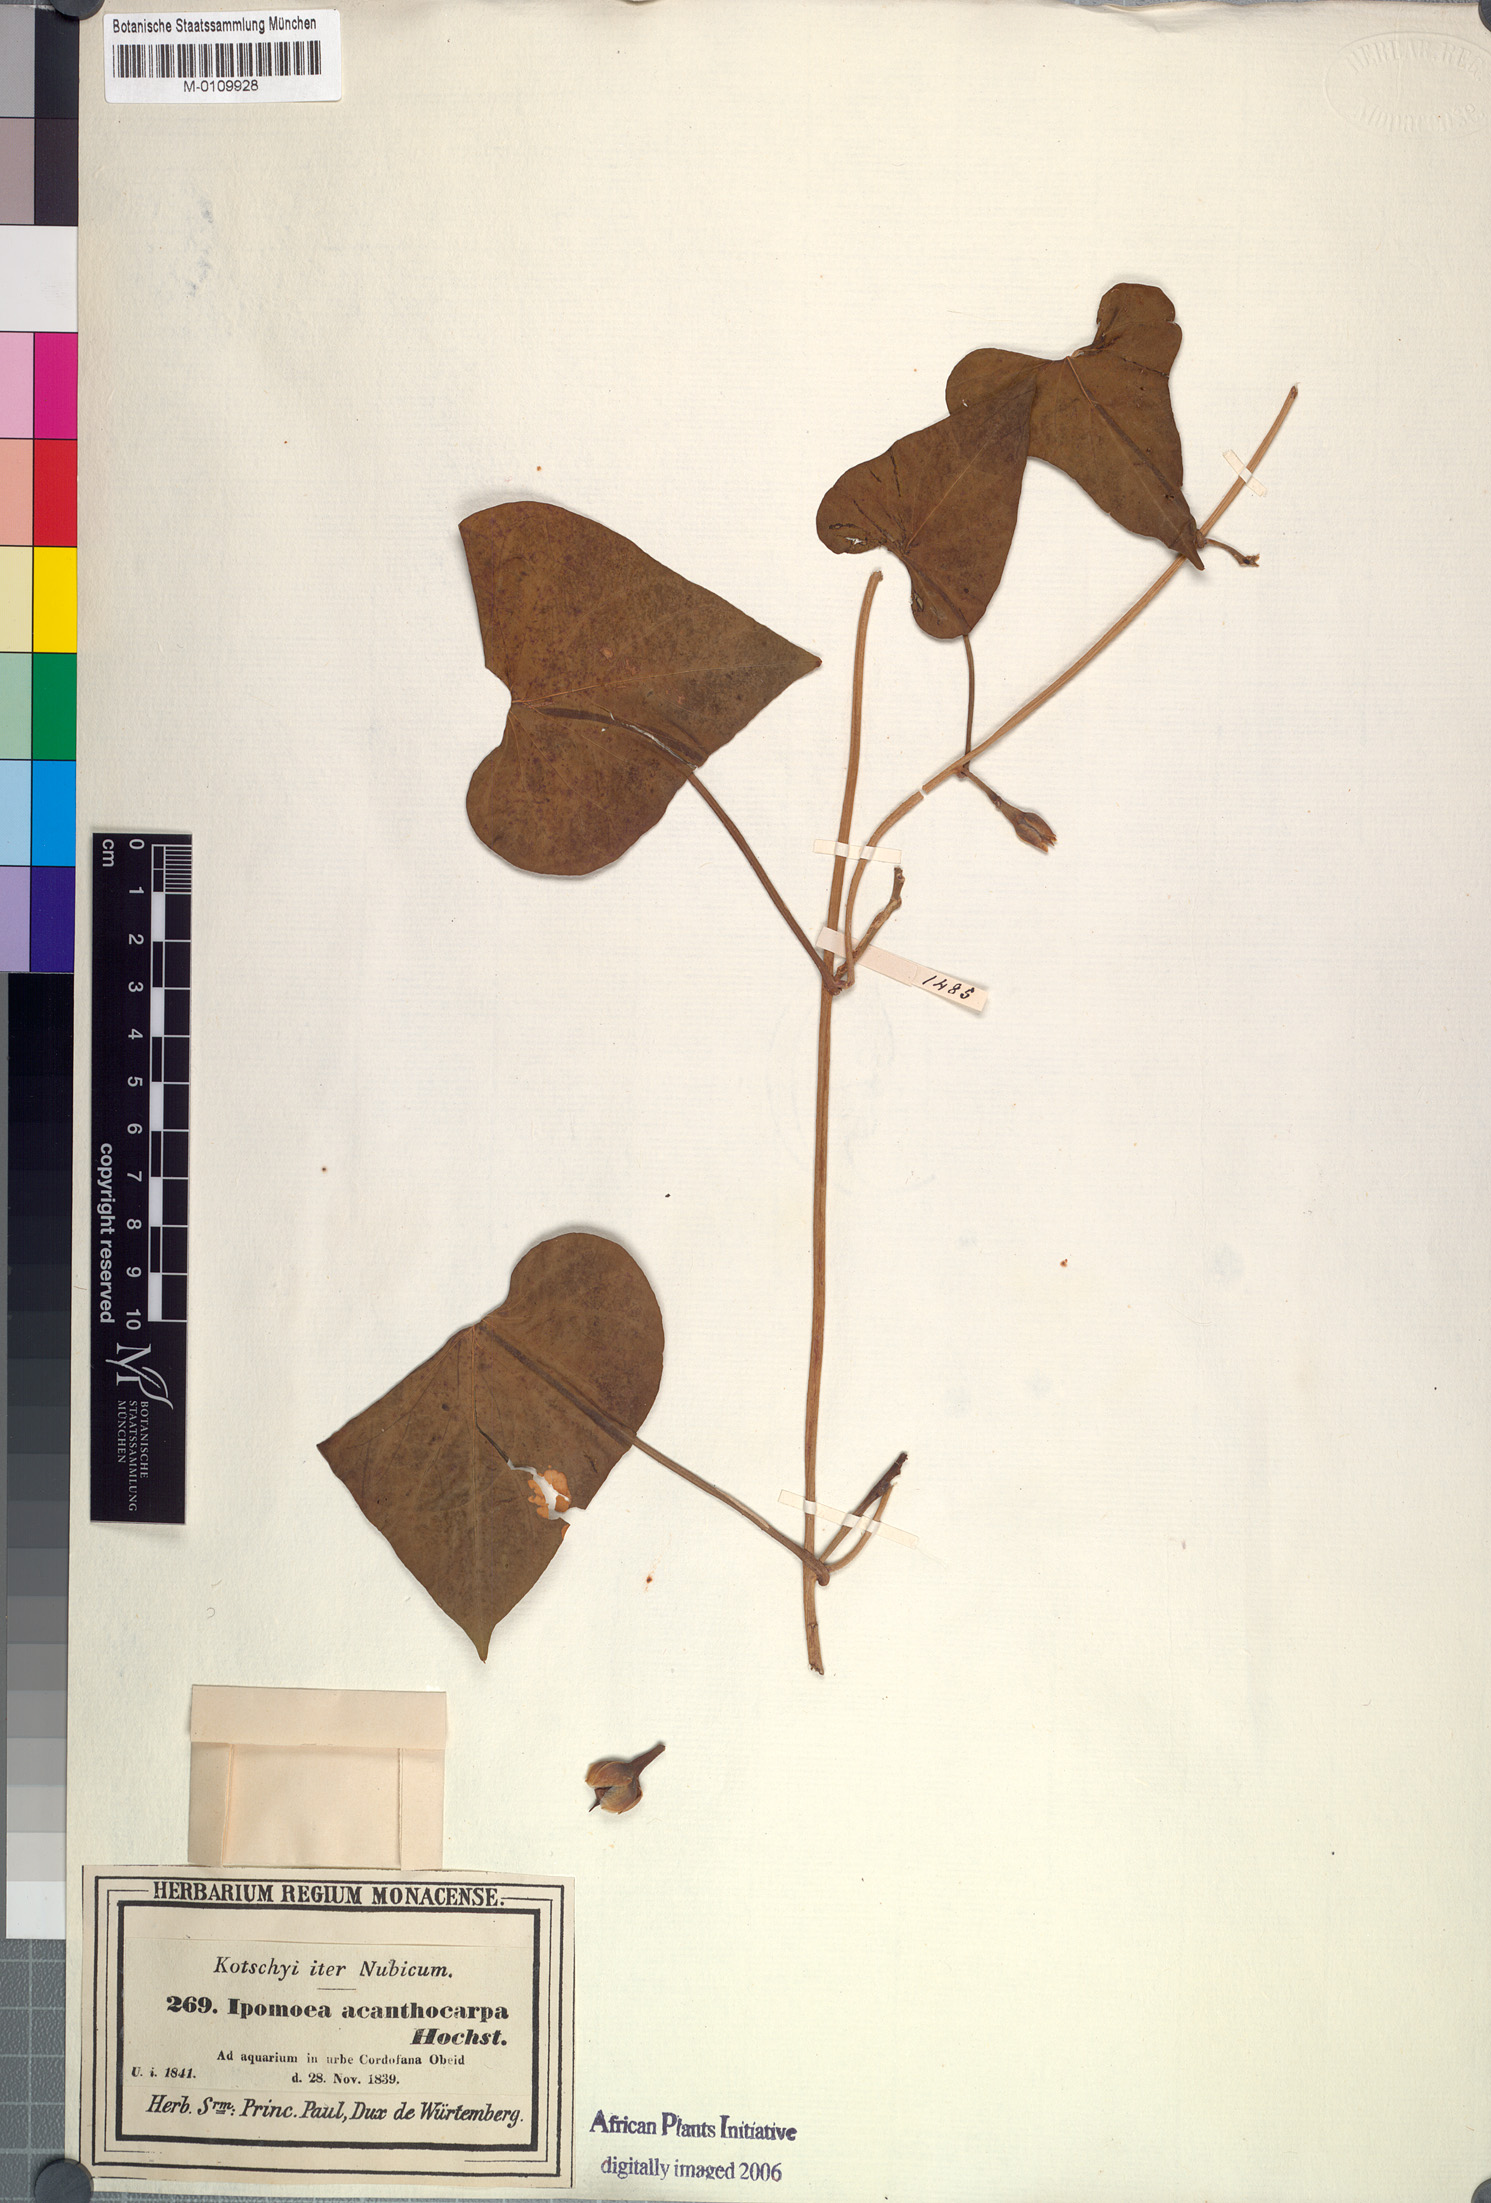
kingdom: Plantae
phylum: Tracheophyta
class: Magnoliopsida
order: Solanales
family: Convolvulaceae
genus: Ipomoea
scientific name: Ipomoea acanthocarpa
